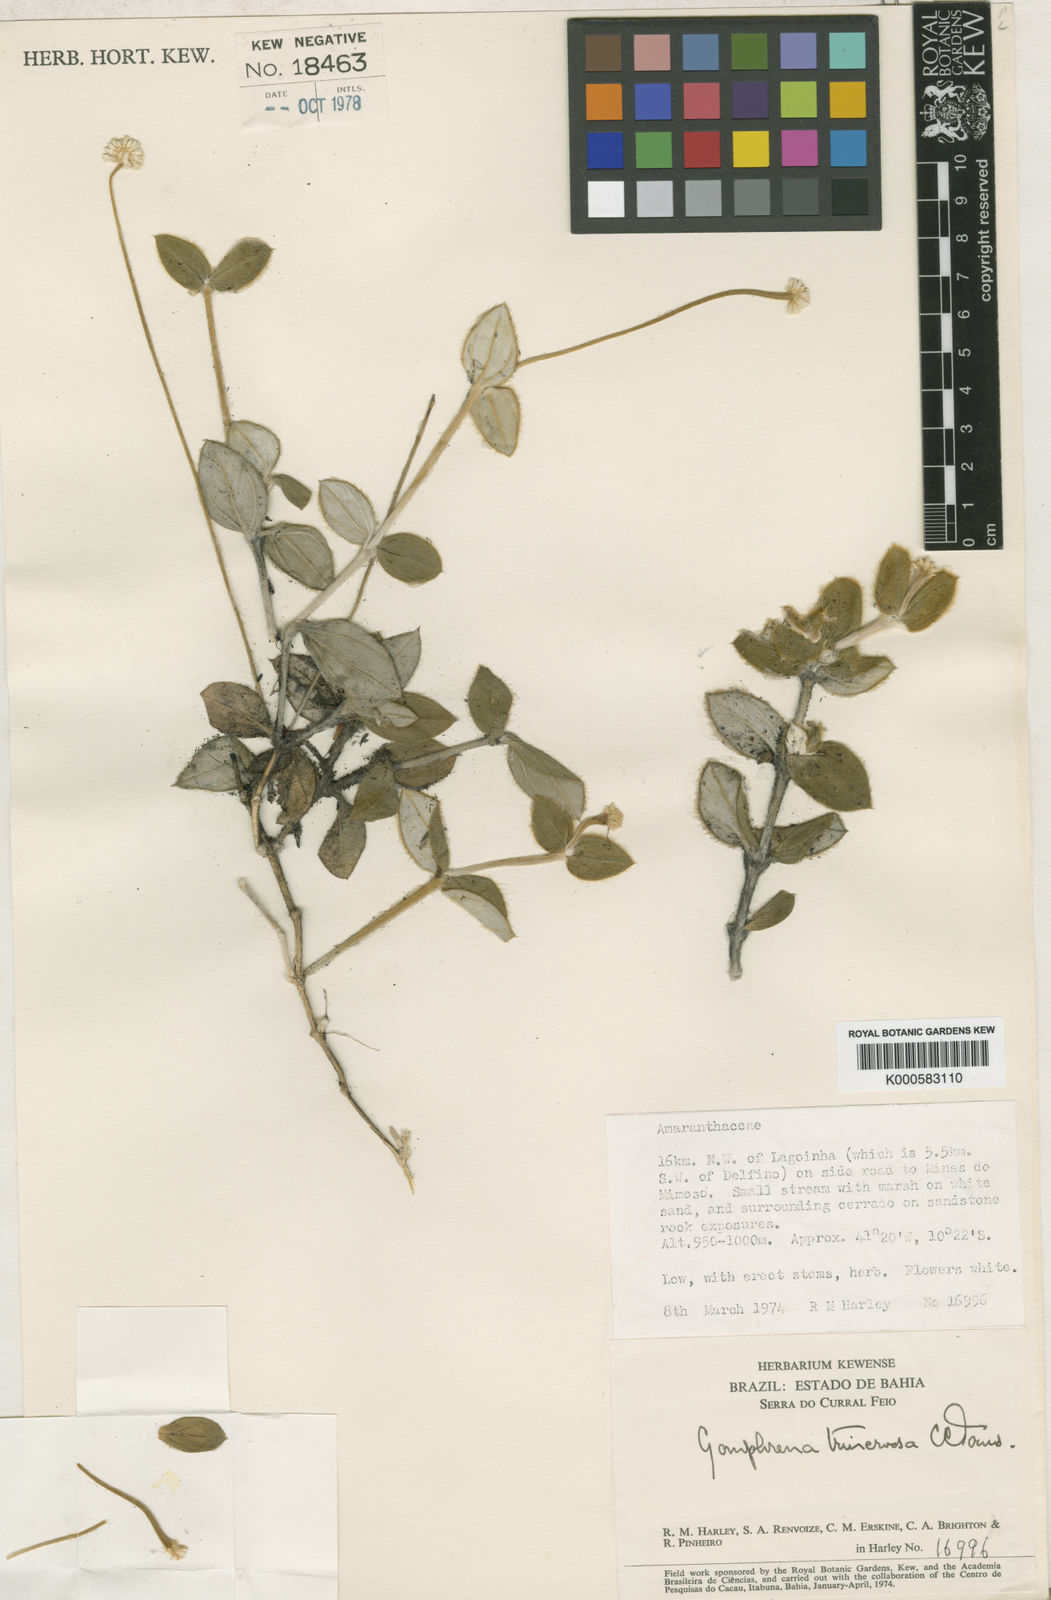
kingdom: Plantae
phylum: Tracheophyta
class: Magnoliopsida
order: Caryophyllales
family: Amaranthaceae
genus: Gomphrena
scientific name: Gomphrena macrorhiza
